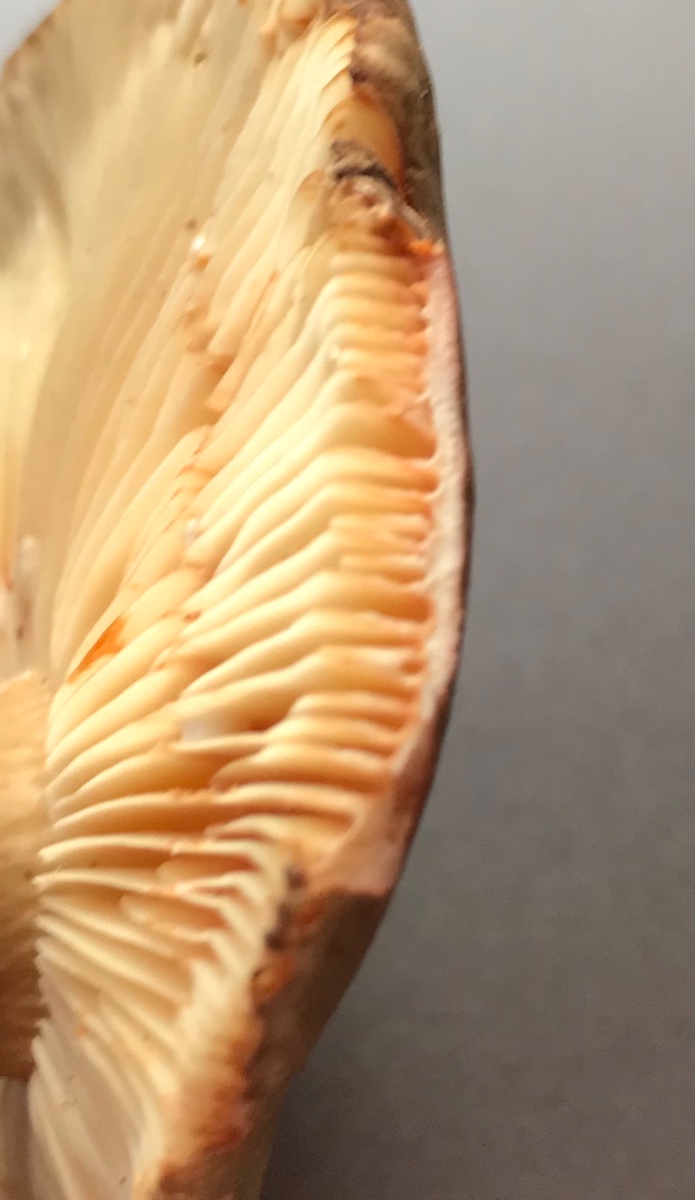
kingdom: Fungi
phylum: Basidiomycota
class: Agaricomycetes
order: Russulales
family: Russulaceae
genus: Lactarius
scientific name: Lactarius ruginosus
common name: gråbrun mælkehat
